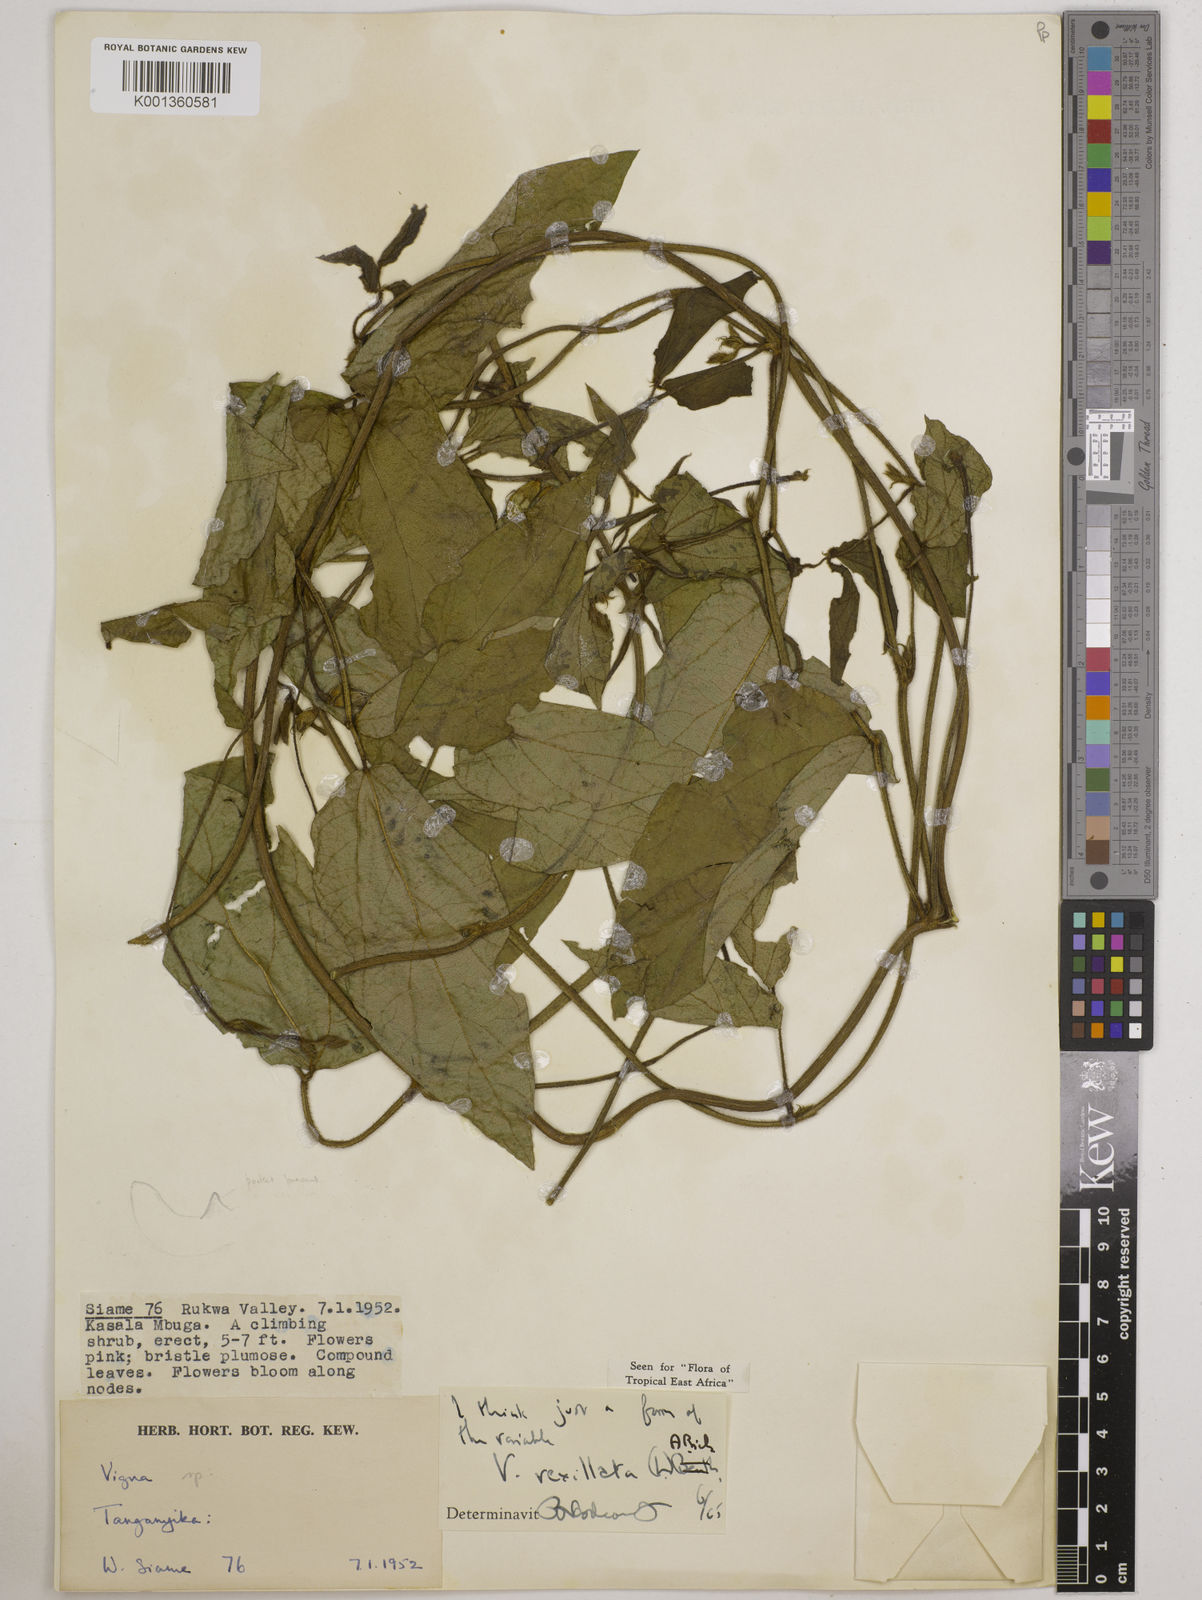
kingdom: Plantae
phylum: Tracheophyta
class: Magnoliopsida
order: Fabales
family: Fabaceae
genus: Vigna
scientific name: Vigna vexillata
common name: Zombi pea
